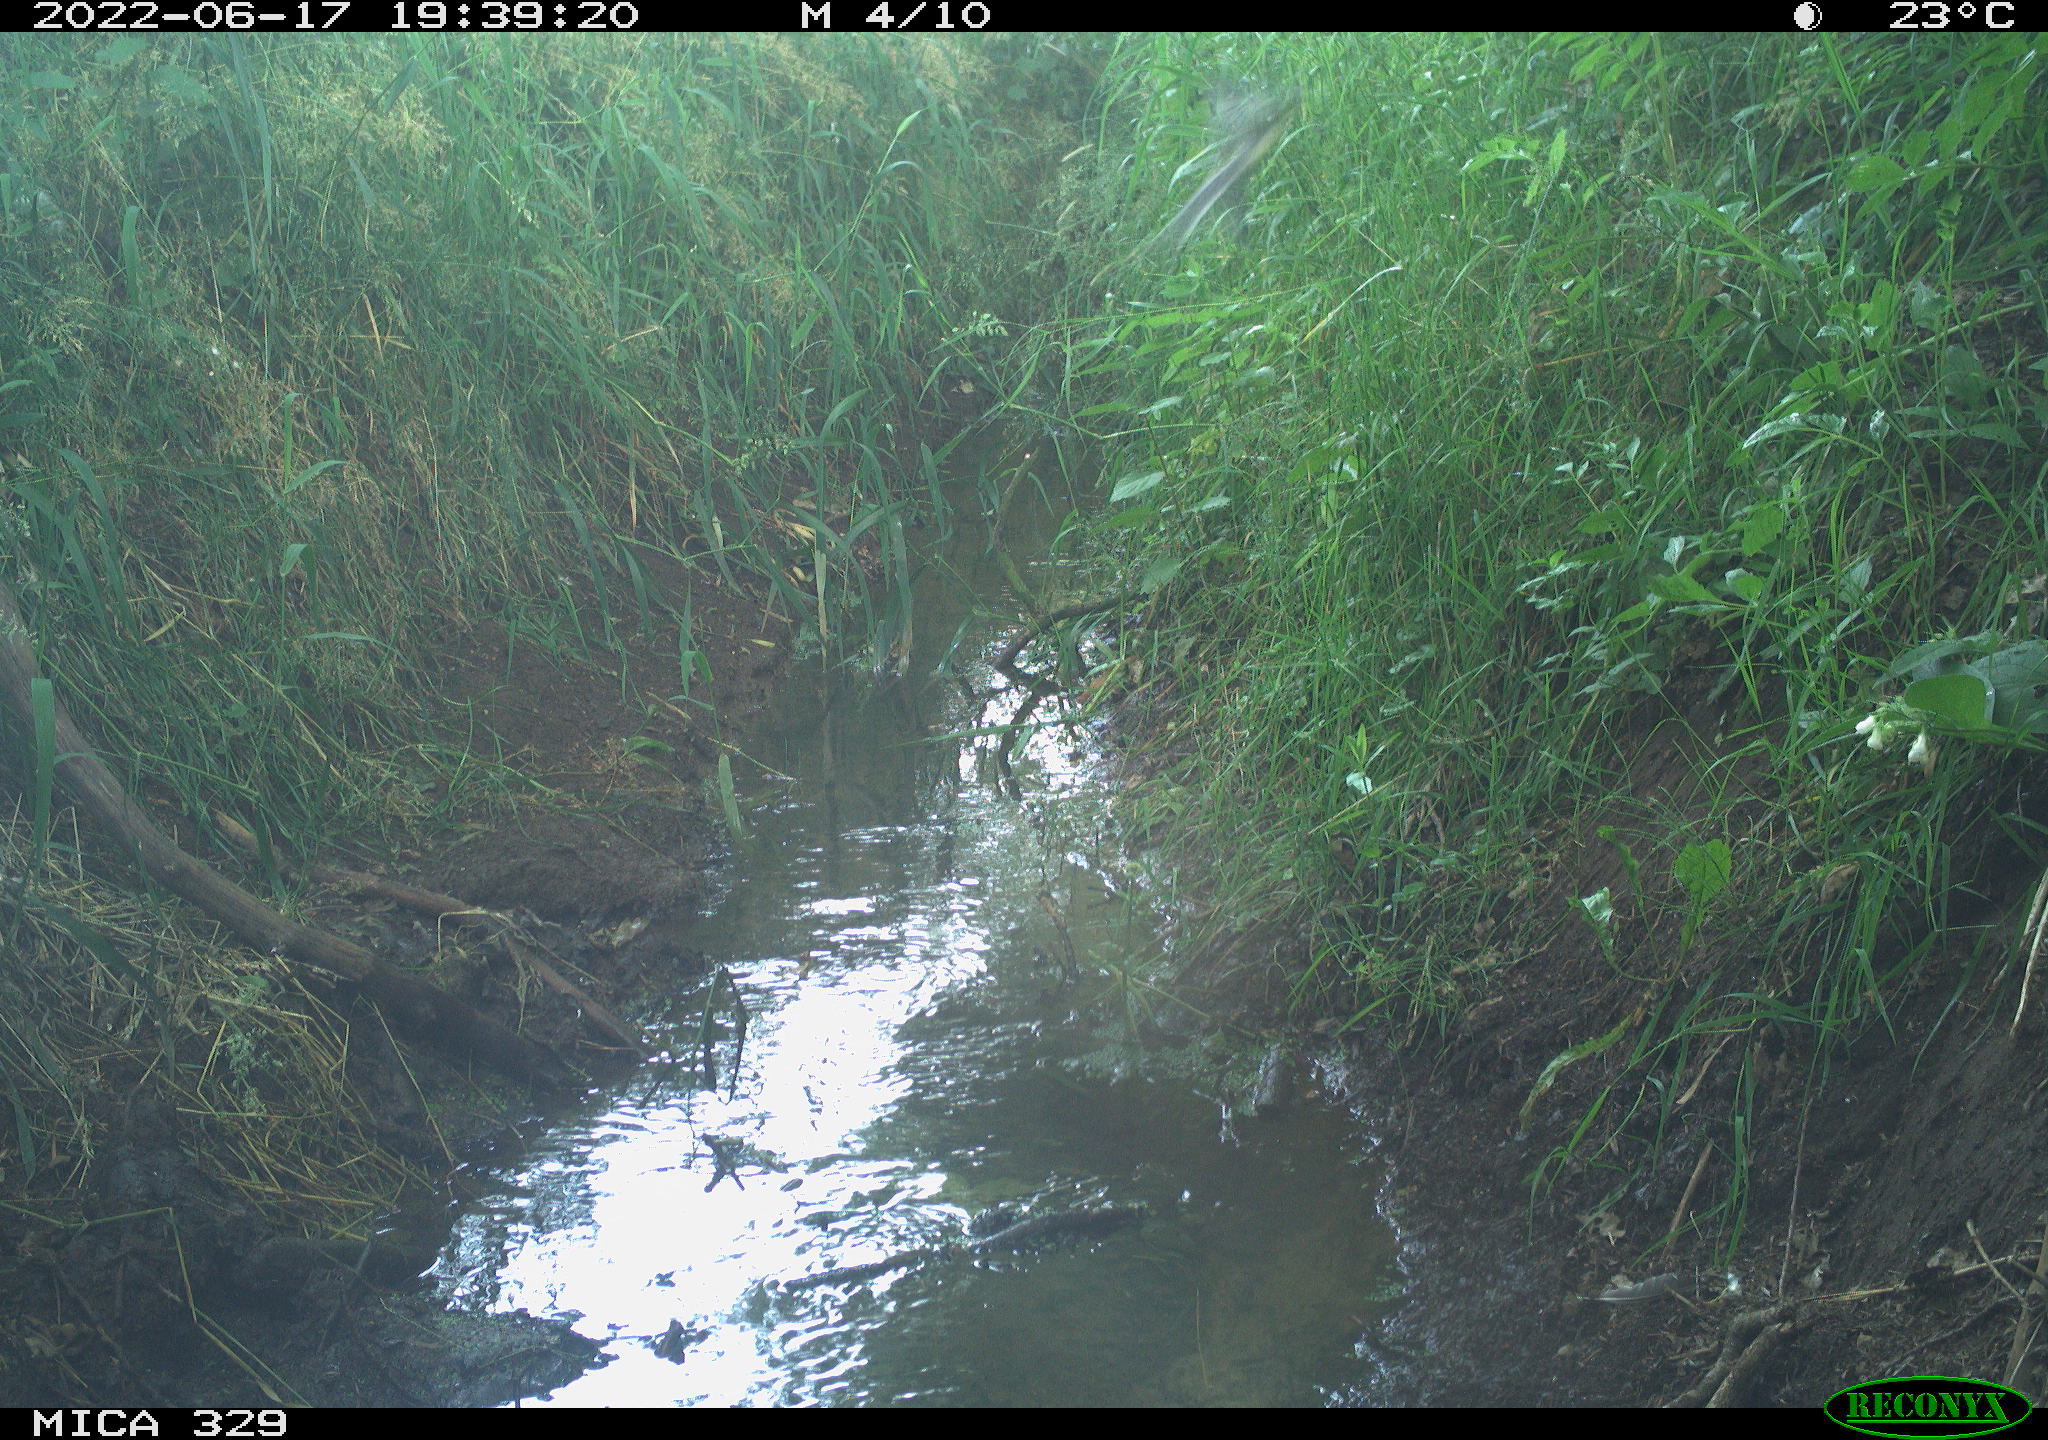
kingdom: Animalia
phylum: Chordata
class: Aves
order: Passeriformes
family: Paridae
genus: Parus
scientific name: Parus major
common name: Great tit
